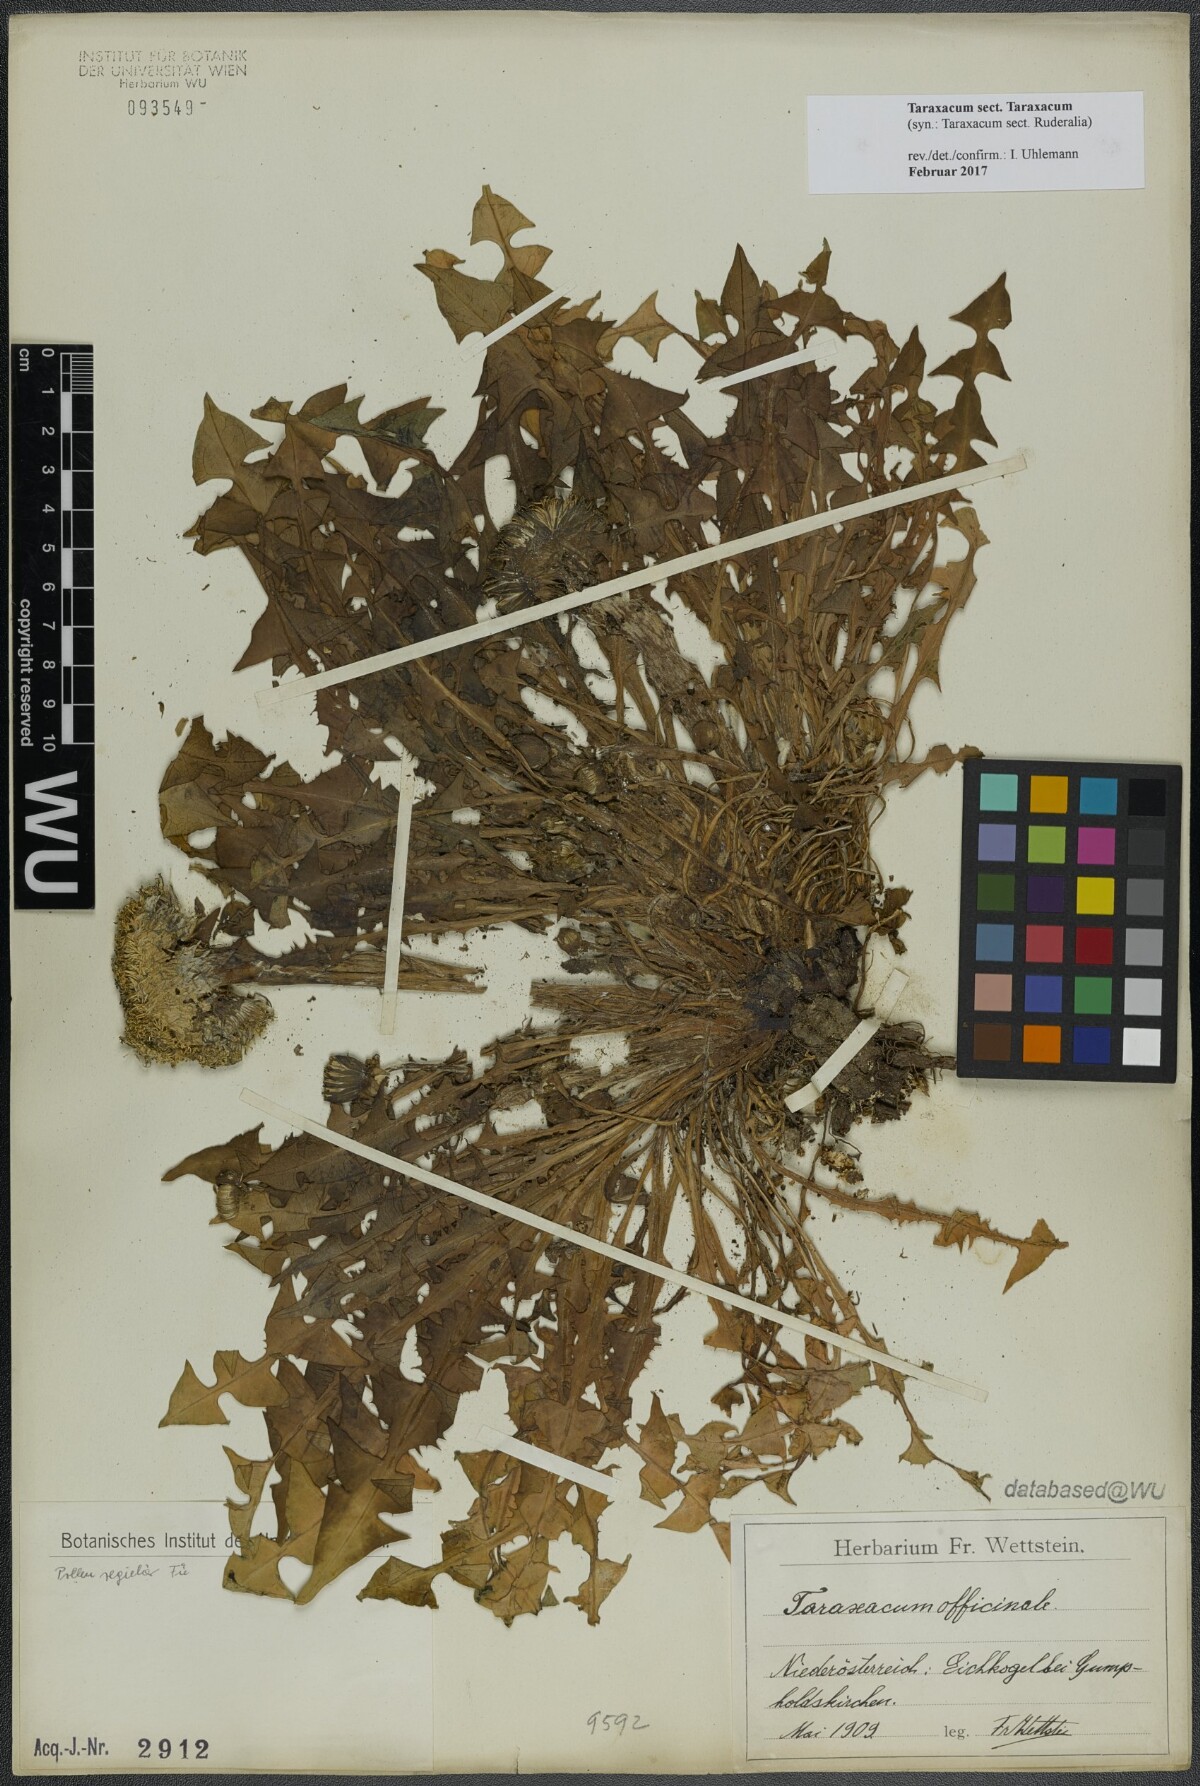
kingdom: Plantae
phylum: Tracheophyta
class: Magnoliopsida
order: Asterales
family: Asteraceae
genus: Taraxacum
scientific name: Taraxacum
